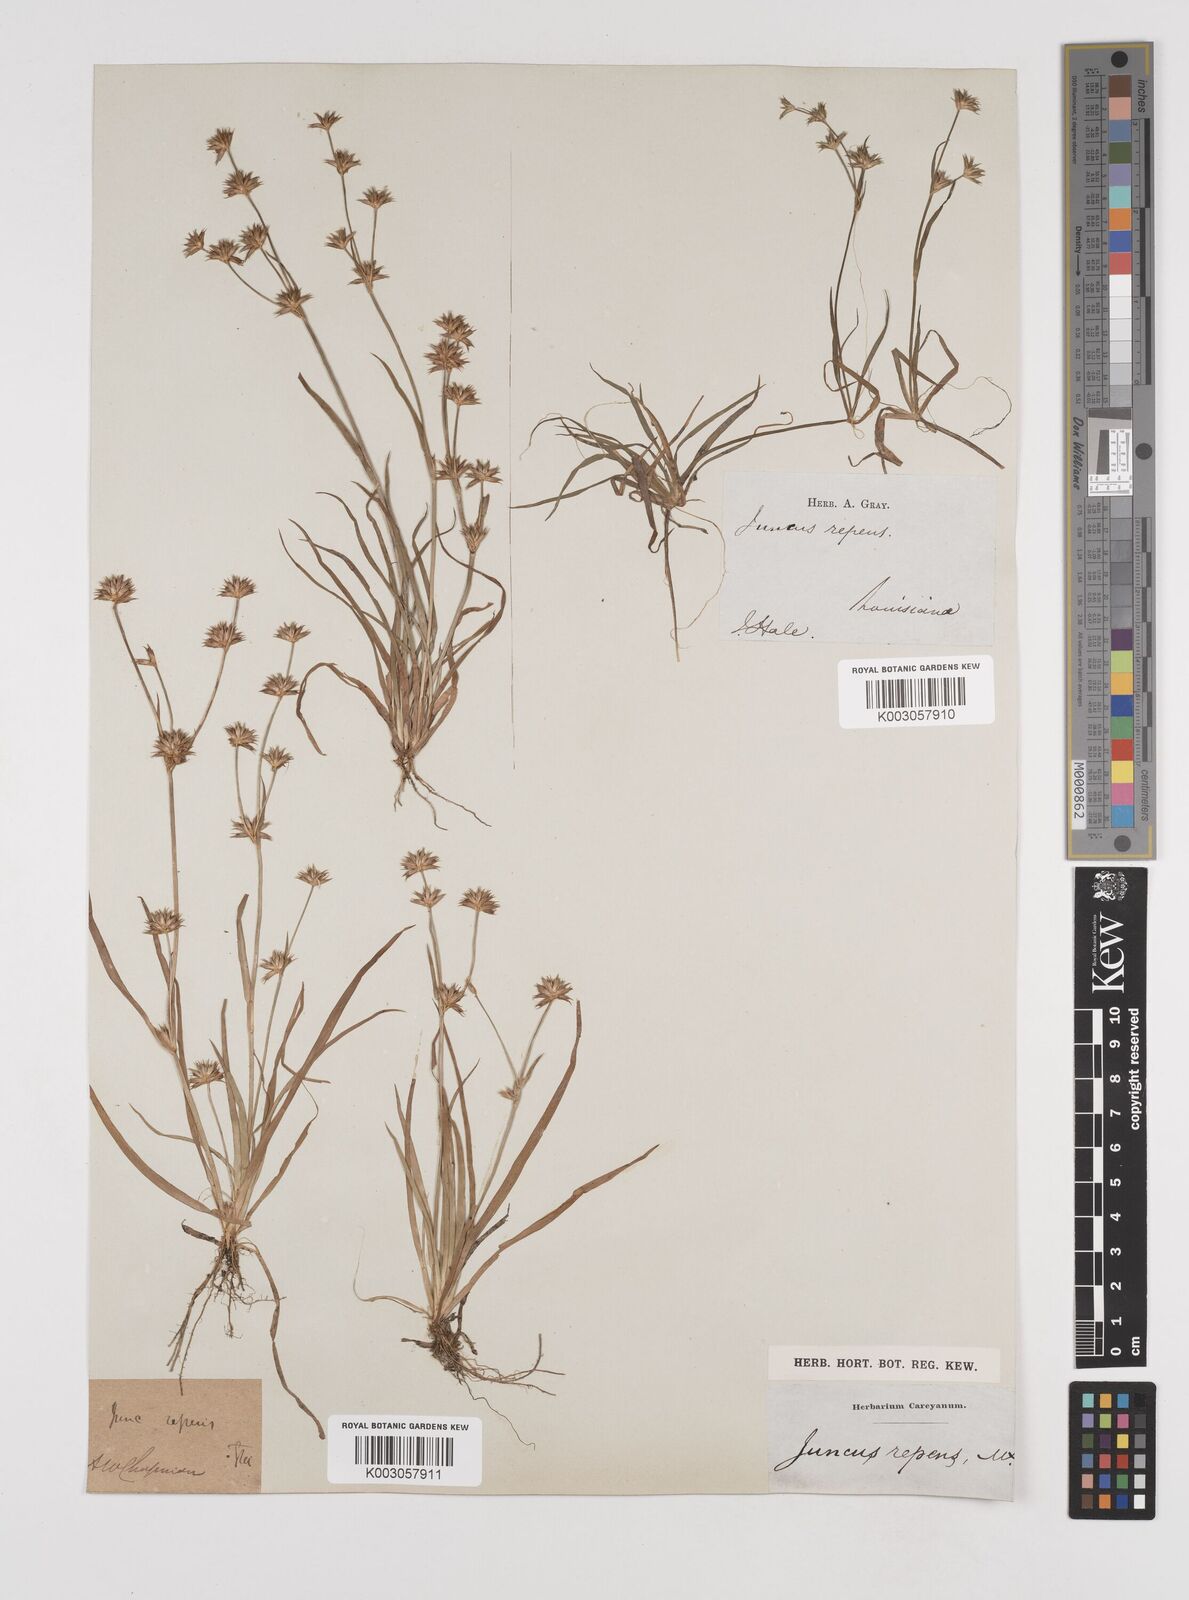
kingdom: Plantae
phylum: Tracheophyta
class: Liliopsida
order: Poales
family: Juncaceae
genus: Juncus
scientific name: Juncus repens
